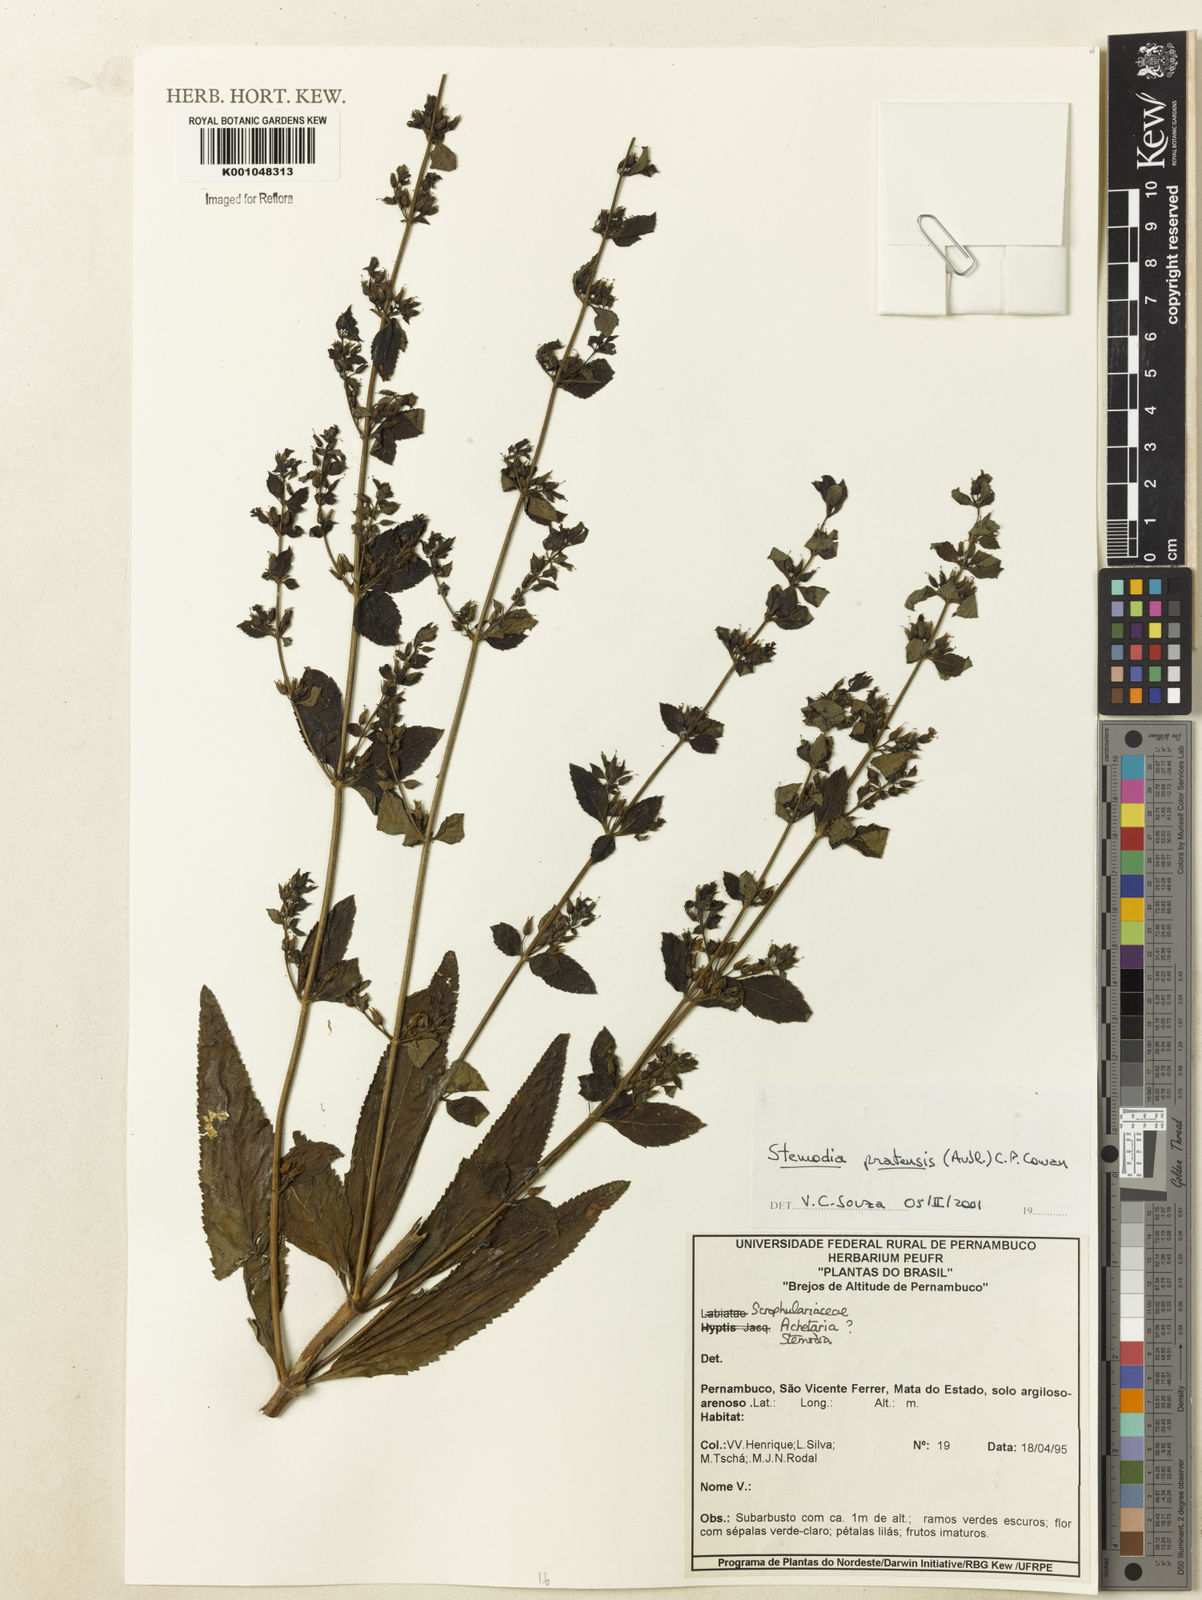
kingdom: Plantae
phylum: Tracheophyta
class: Magnoliopsida
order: Lamiales
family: Plantaginaceae
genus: Stemodia
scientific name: Stemodia foliosa
